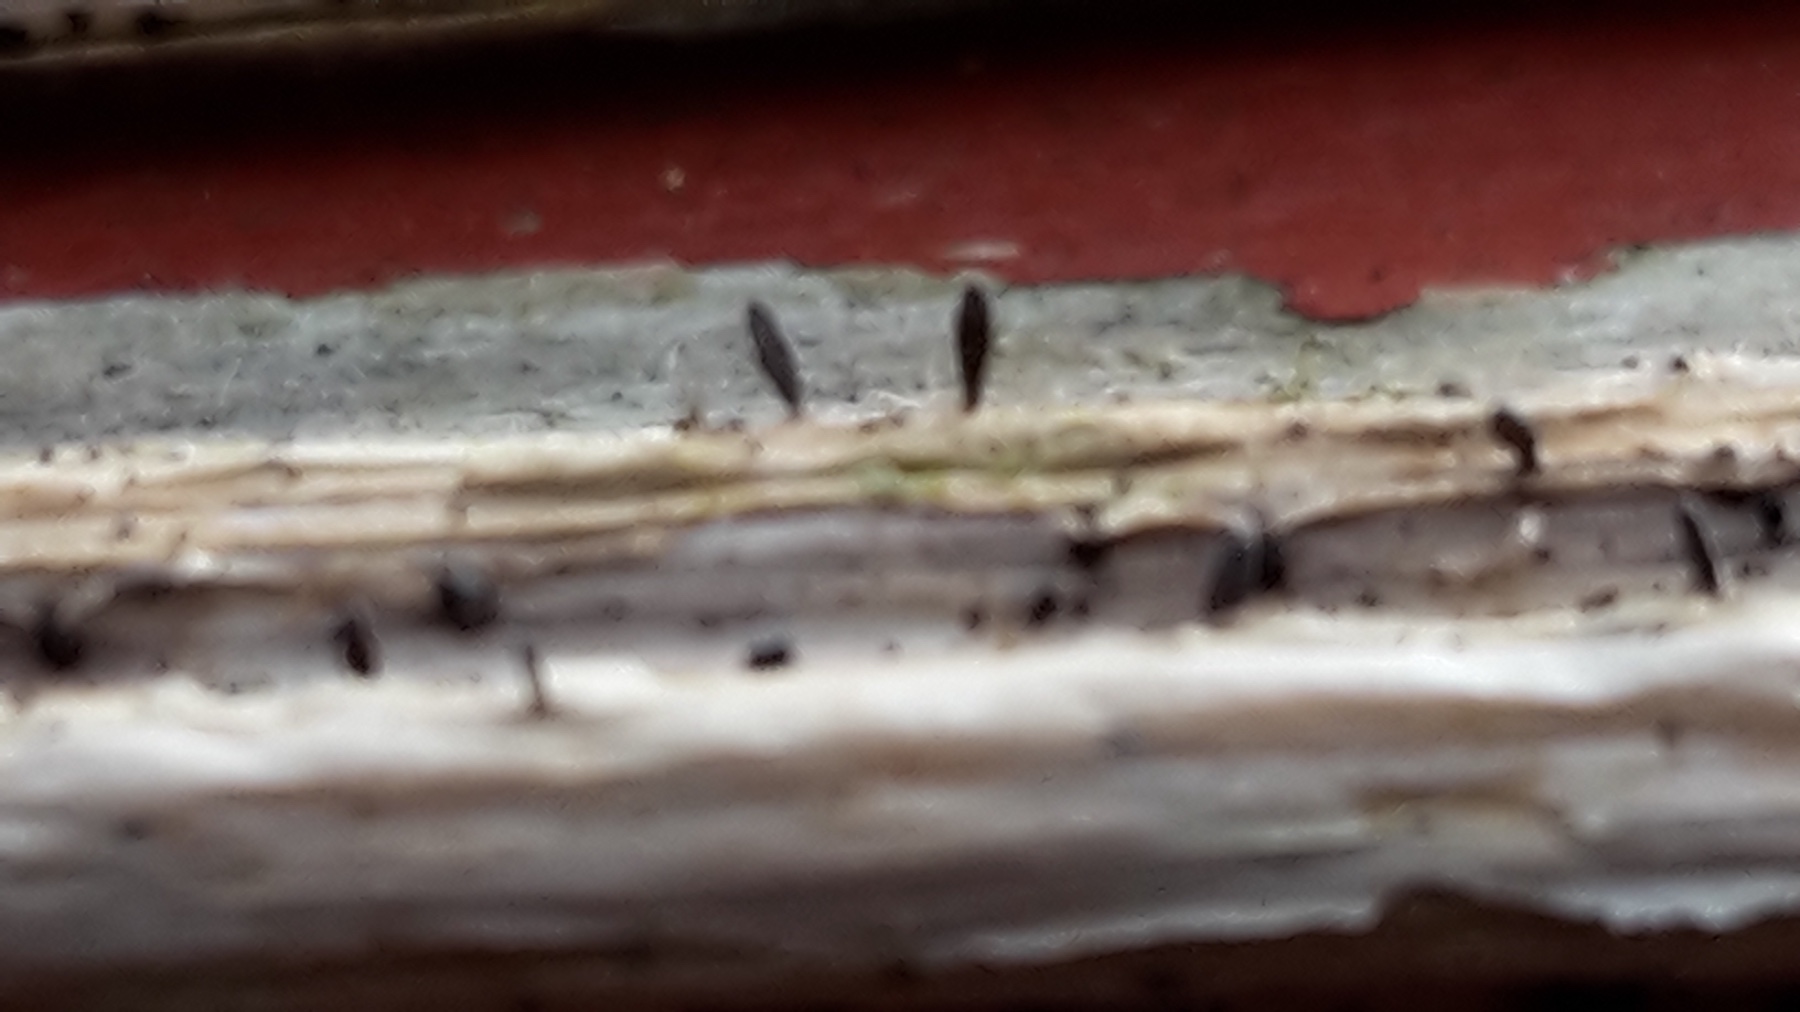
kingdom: Fungi
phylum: Ascomycota
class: Dothideomycetes
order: Acrospermales
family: Acrospermaceae
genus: Acrospermum
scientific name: Acrospermum compressum
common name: nælde-stængeltunge
